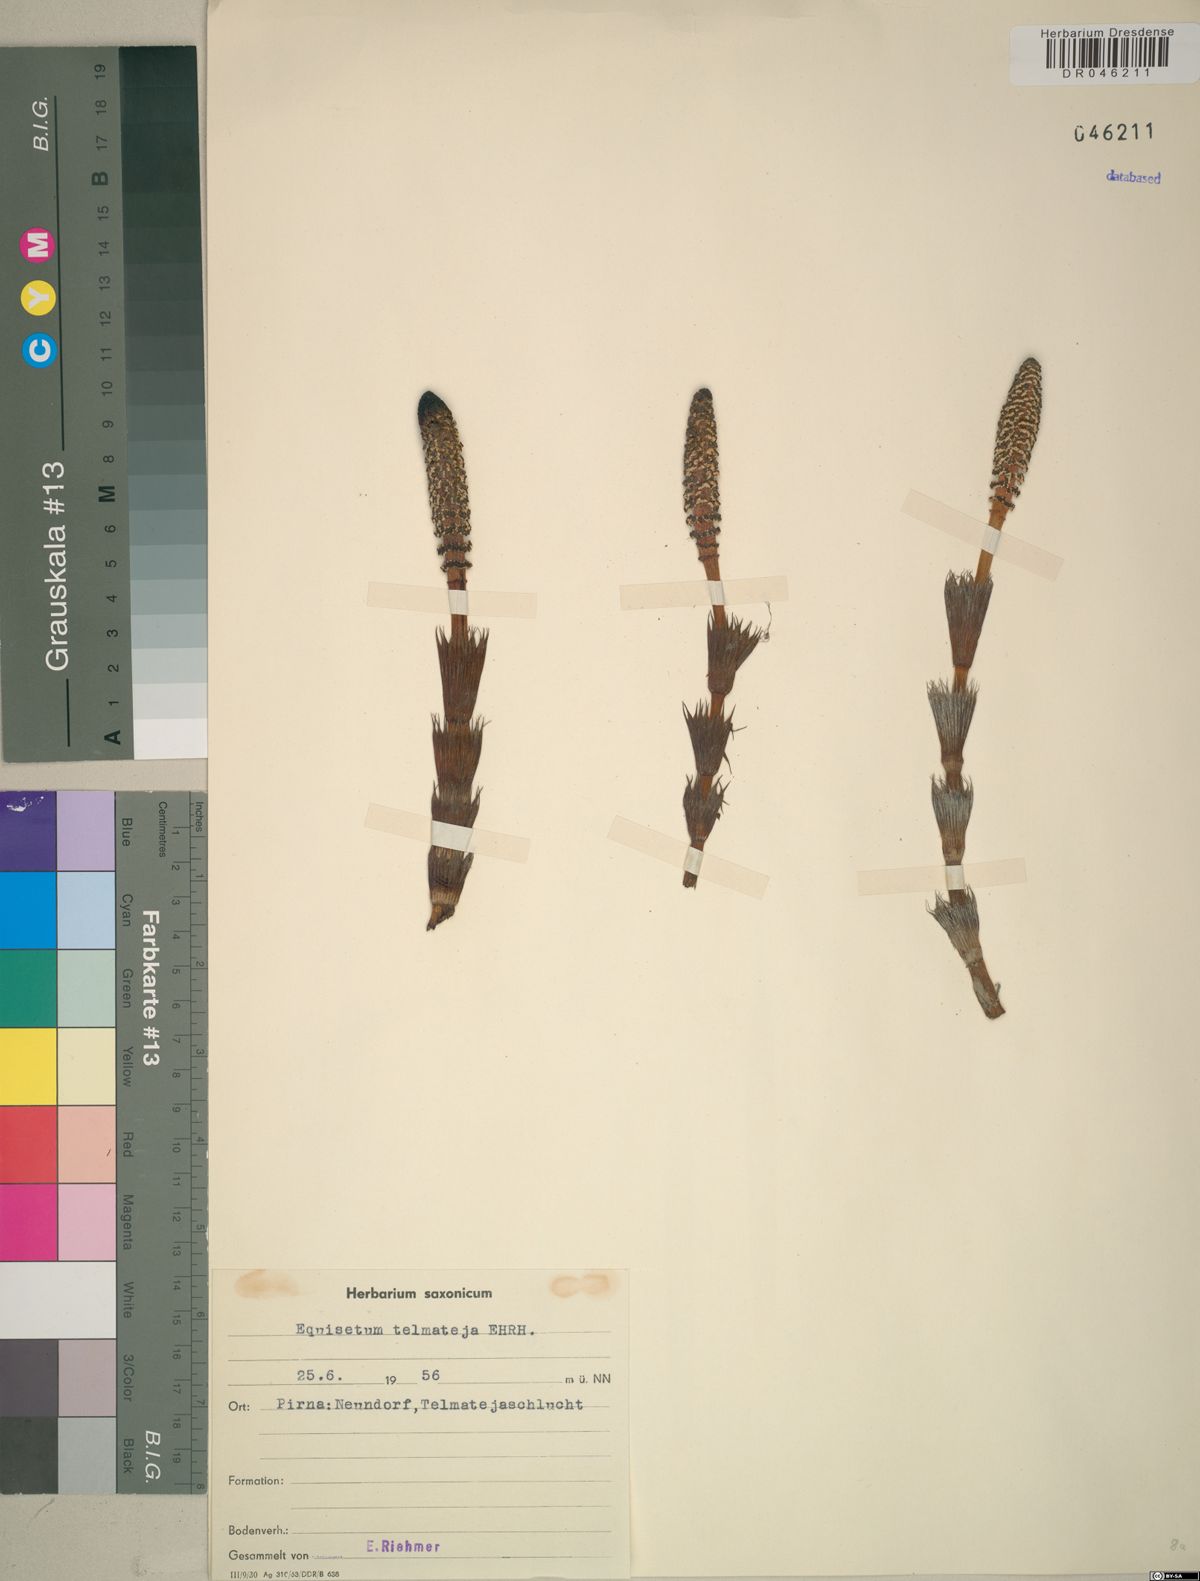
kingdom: Plantae
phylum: Tracheophyta
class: Polypodiopsida
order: Equisetales
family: Equisetaceae
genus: Equisetum
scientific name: Equisetum telmateia
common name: Great horsetail
